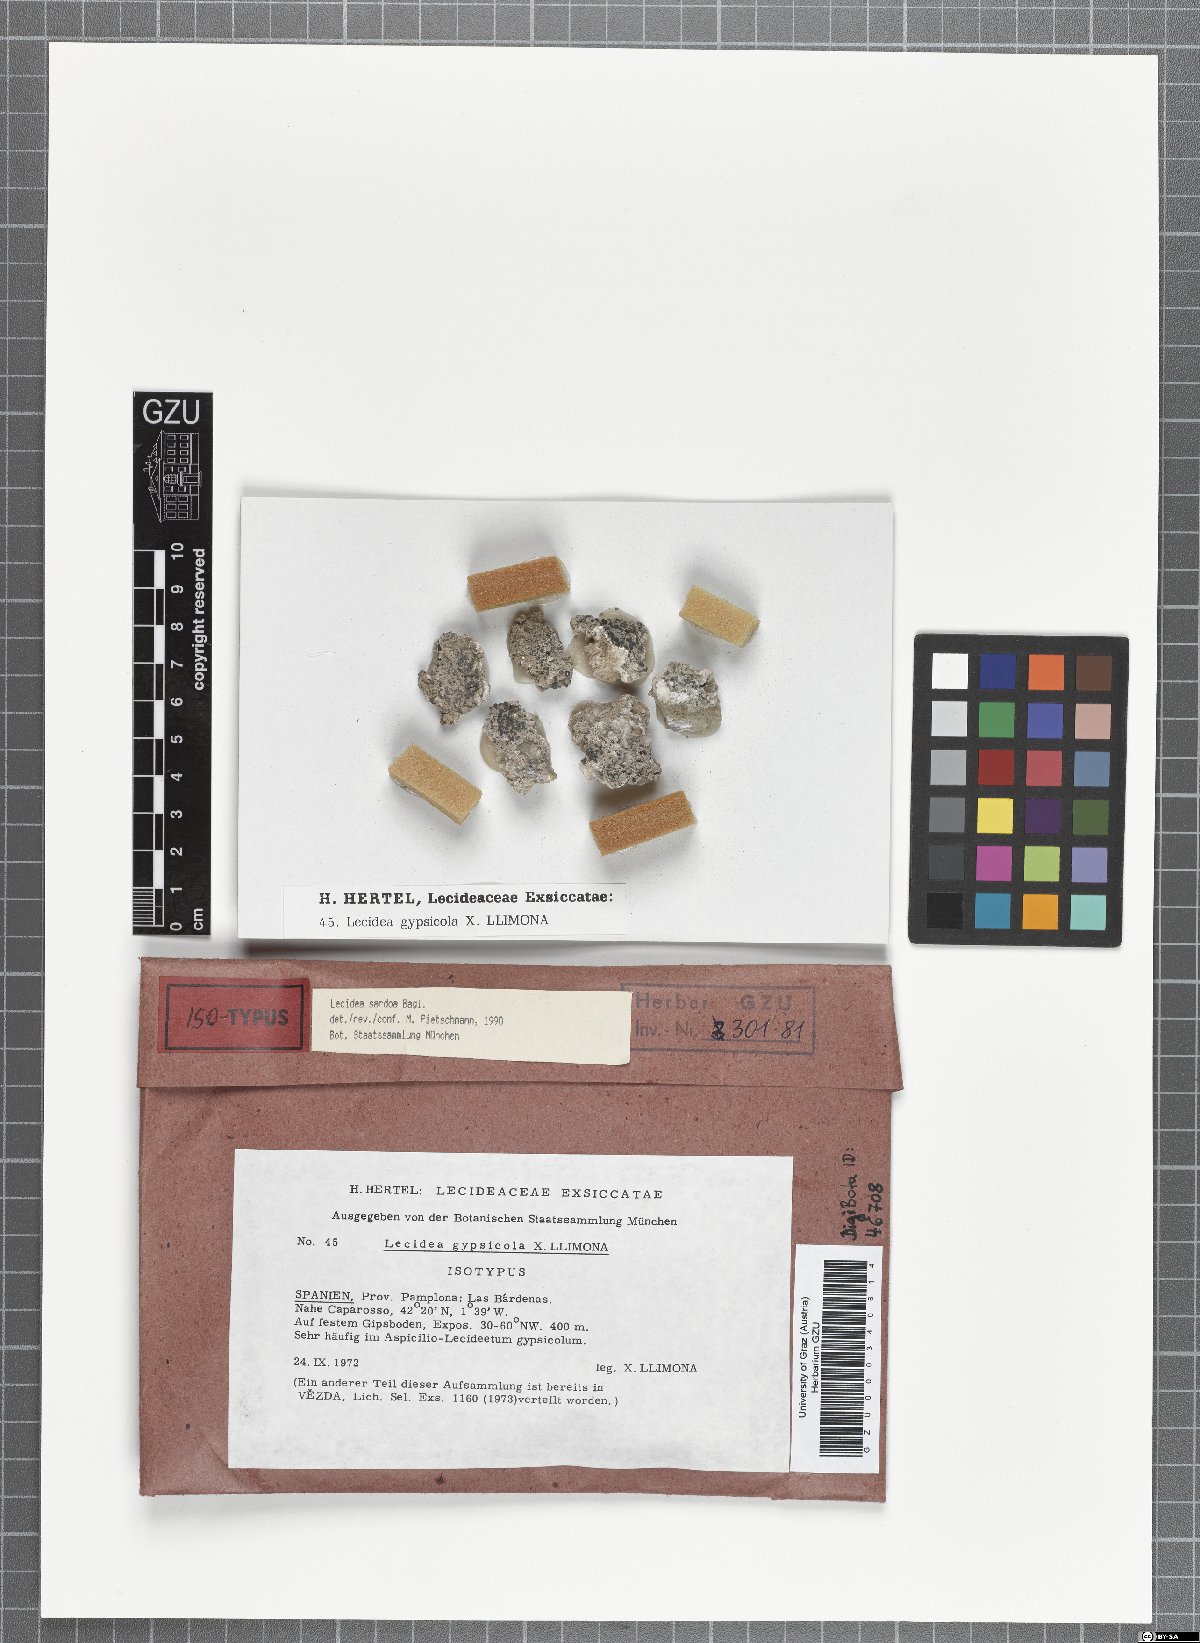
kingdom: Fungi
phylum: Ascomycota
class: Lecanoromycetes
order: Lecideales
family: Lecideaceae
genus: Lecidea
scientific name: Lecidea gypsicola
